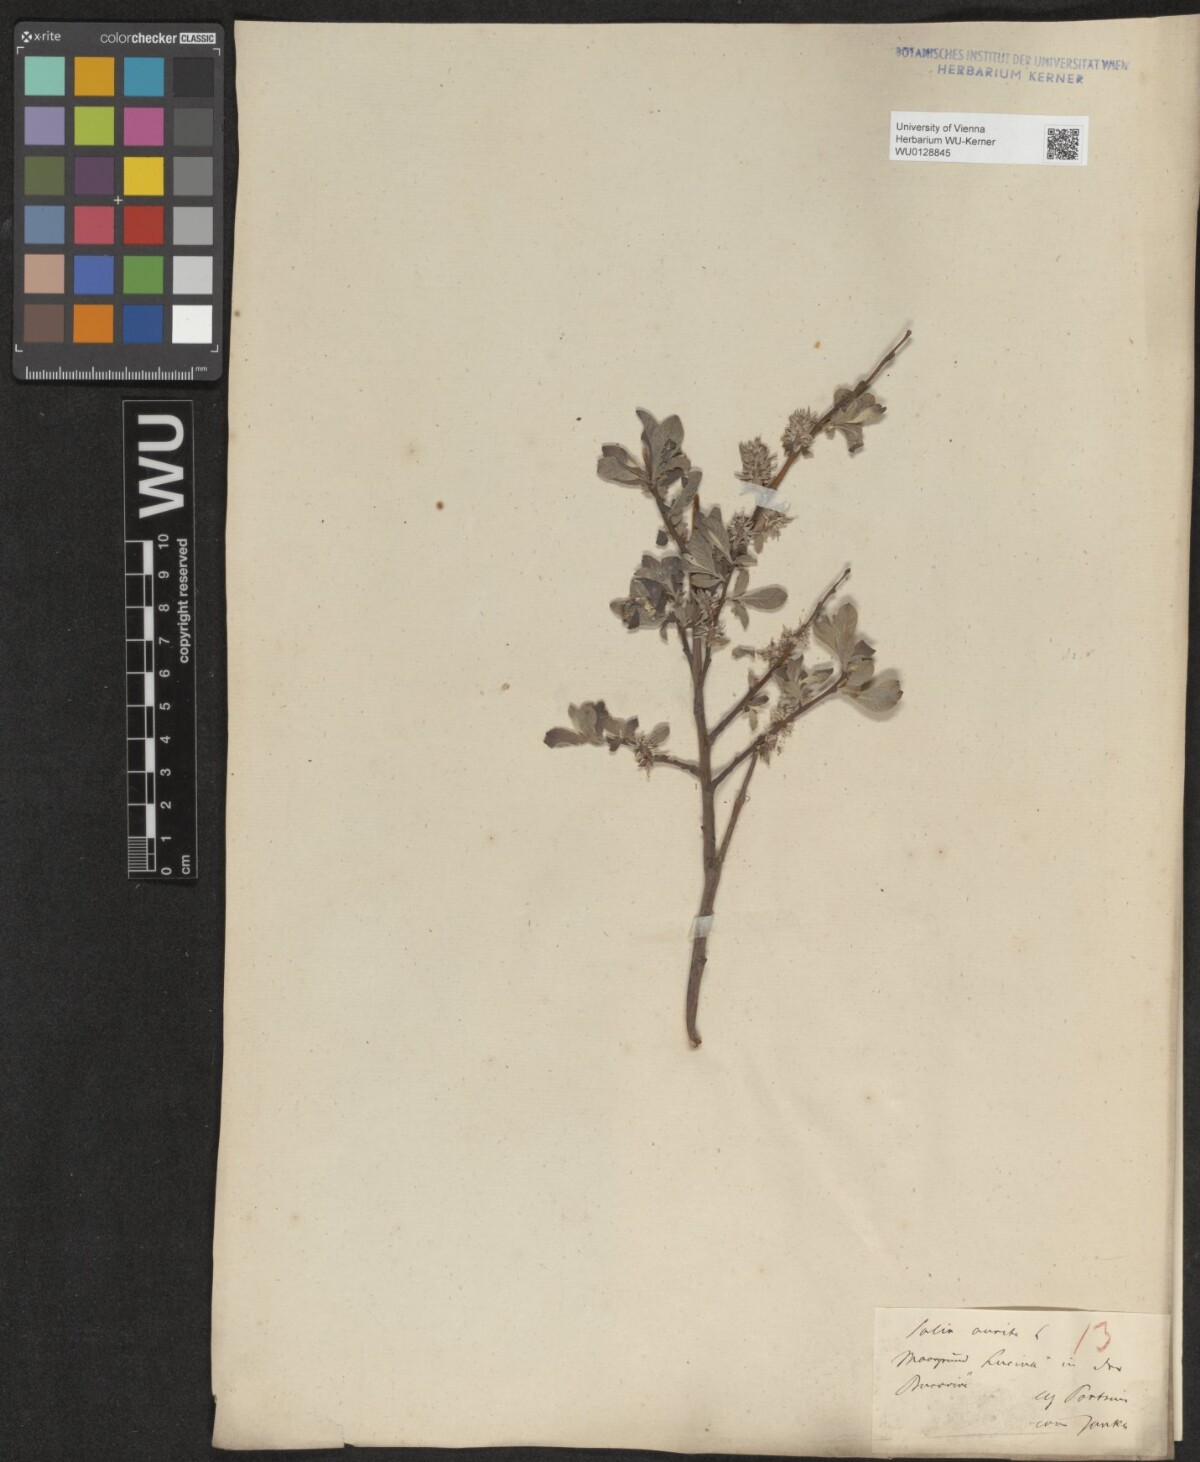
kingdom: Plantae
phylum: Tracheophyta
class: Magnoliopsida
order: Malpighiales
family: Salicaceae
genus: Salix
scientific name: Salix aurita
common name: Eared willow
